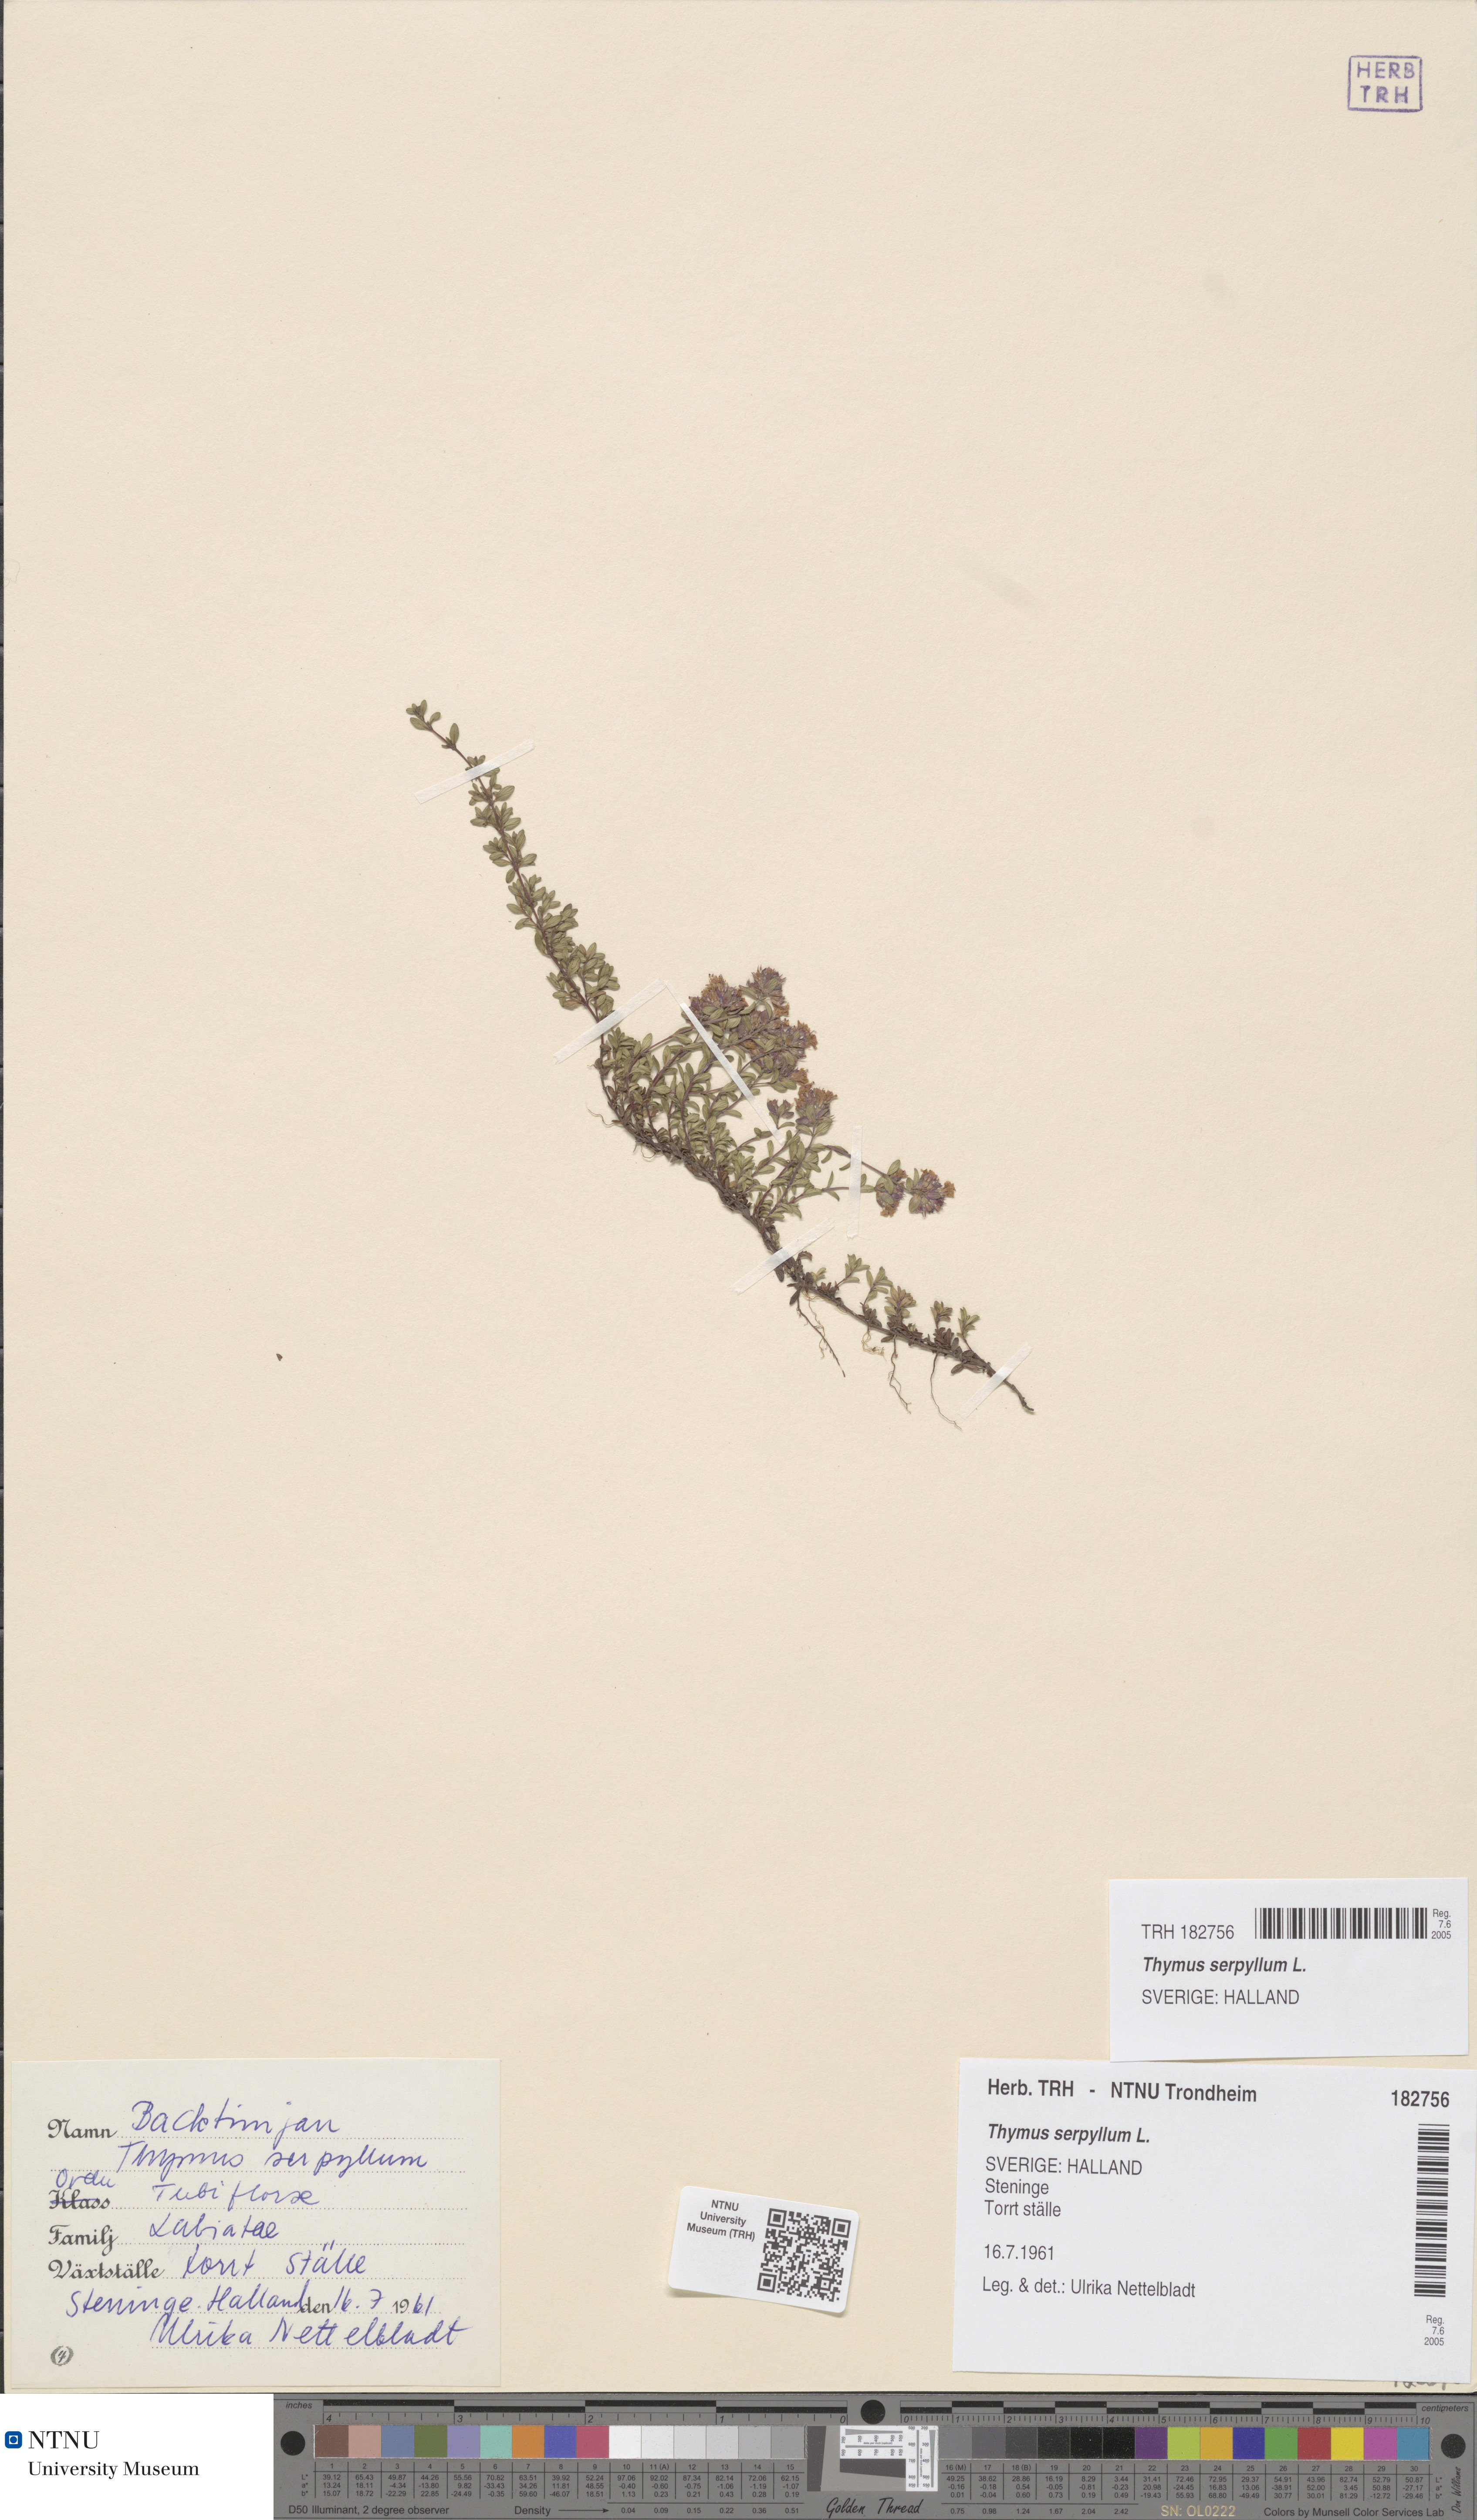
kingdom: Plantae
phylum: Tracheophyta
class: Magnoliopsida
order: Lamiales
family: Lamiaceae
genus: Thymus
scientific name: Thymus serpyllum
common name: Breckland thyme
